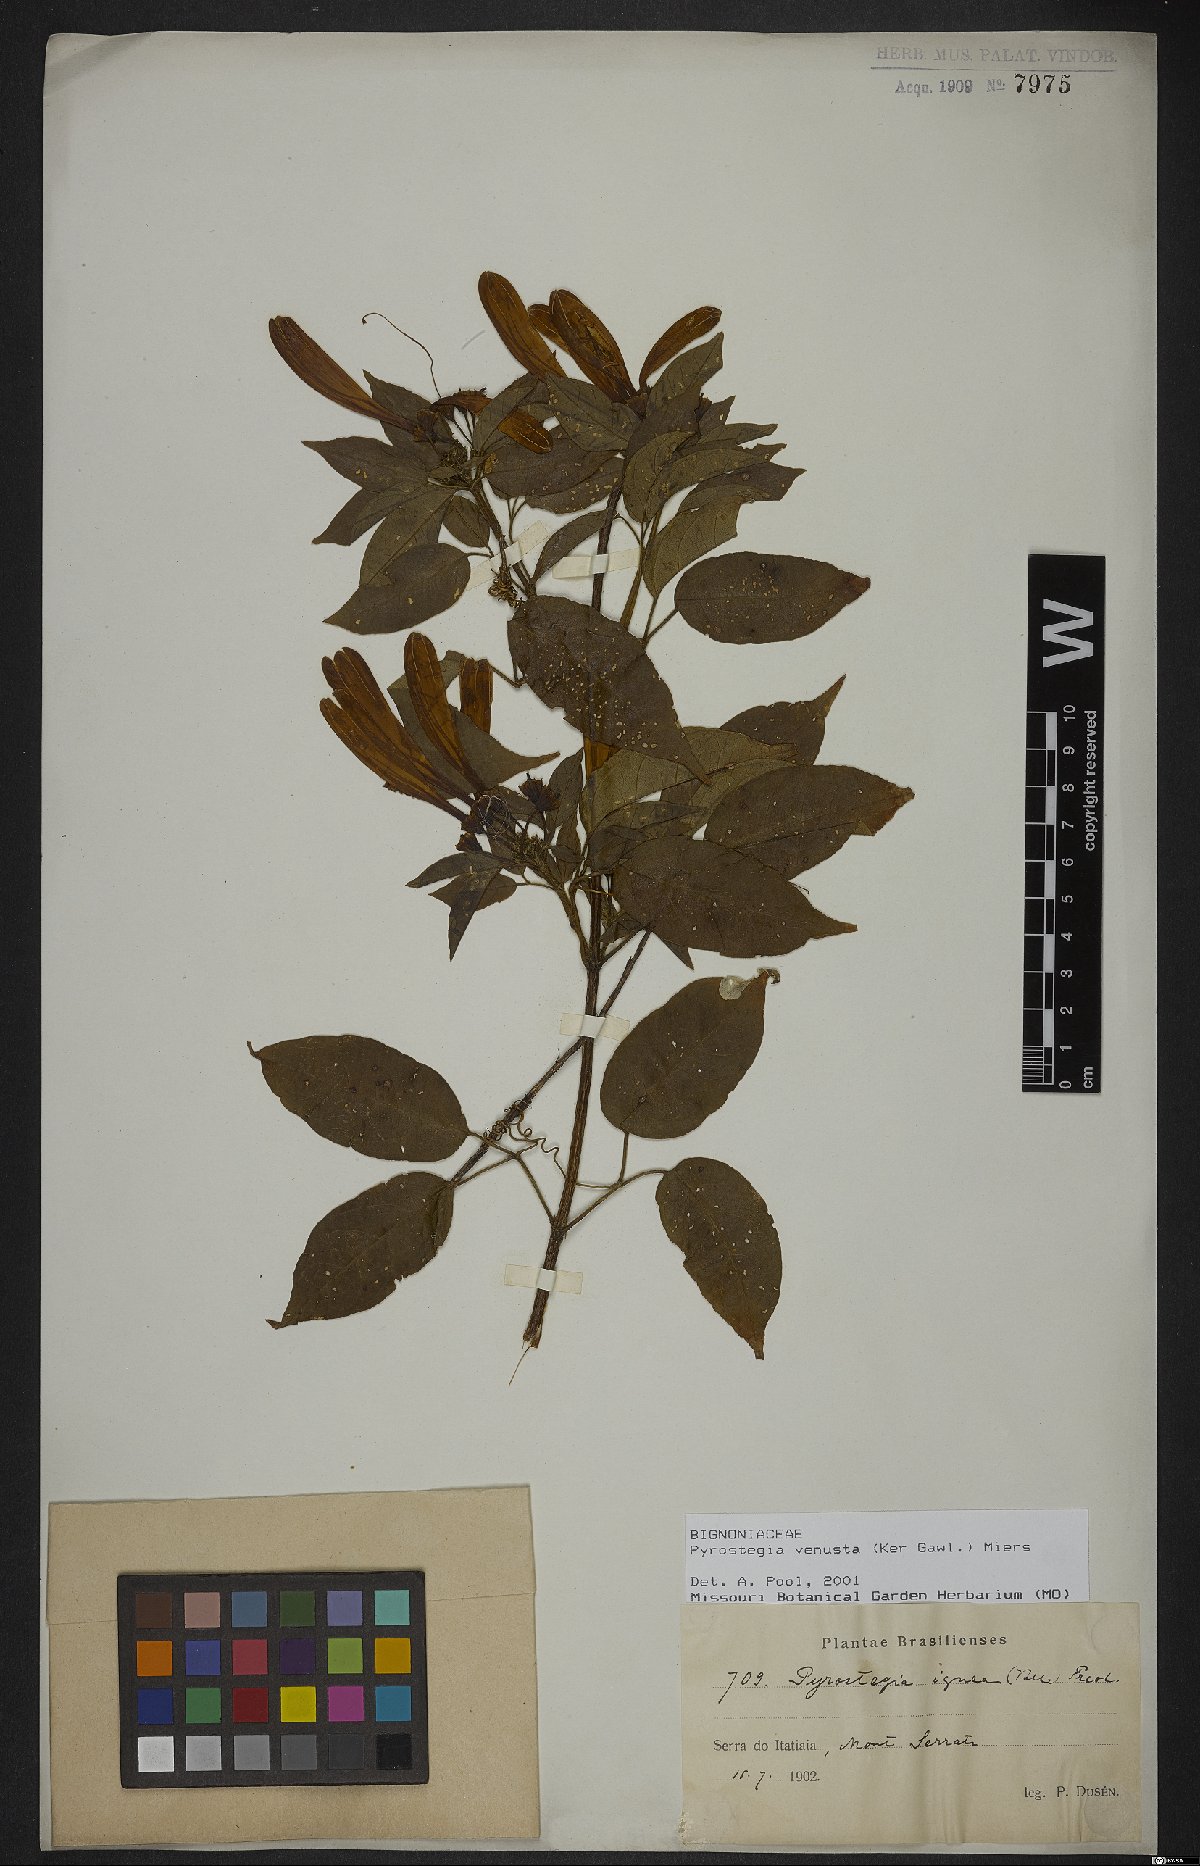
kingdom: Plantae
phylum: Tracheophyta
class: Magnoliopsida
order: Lamiales
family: Bignoniaceae
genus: Pyrostegia
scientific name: Pyrostegia venusta
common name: Flamevine
